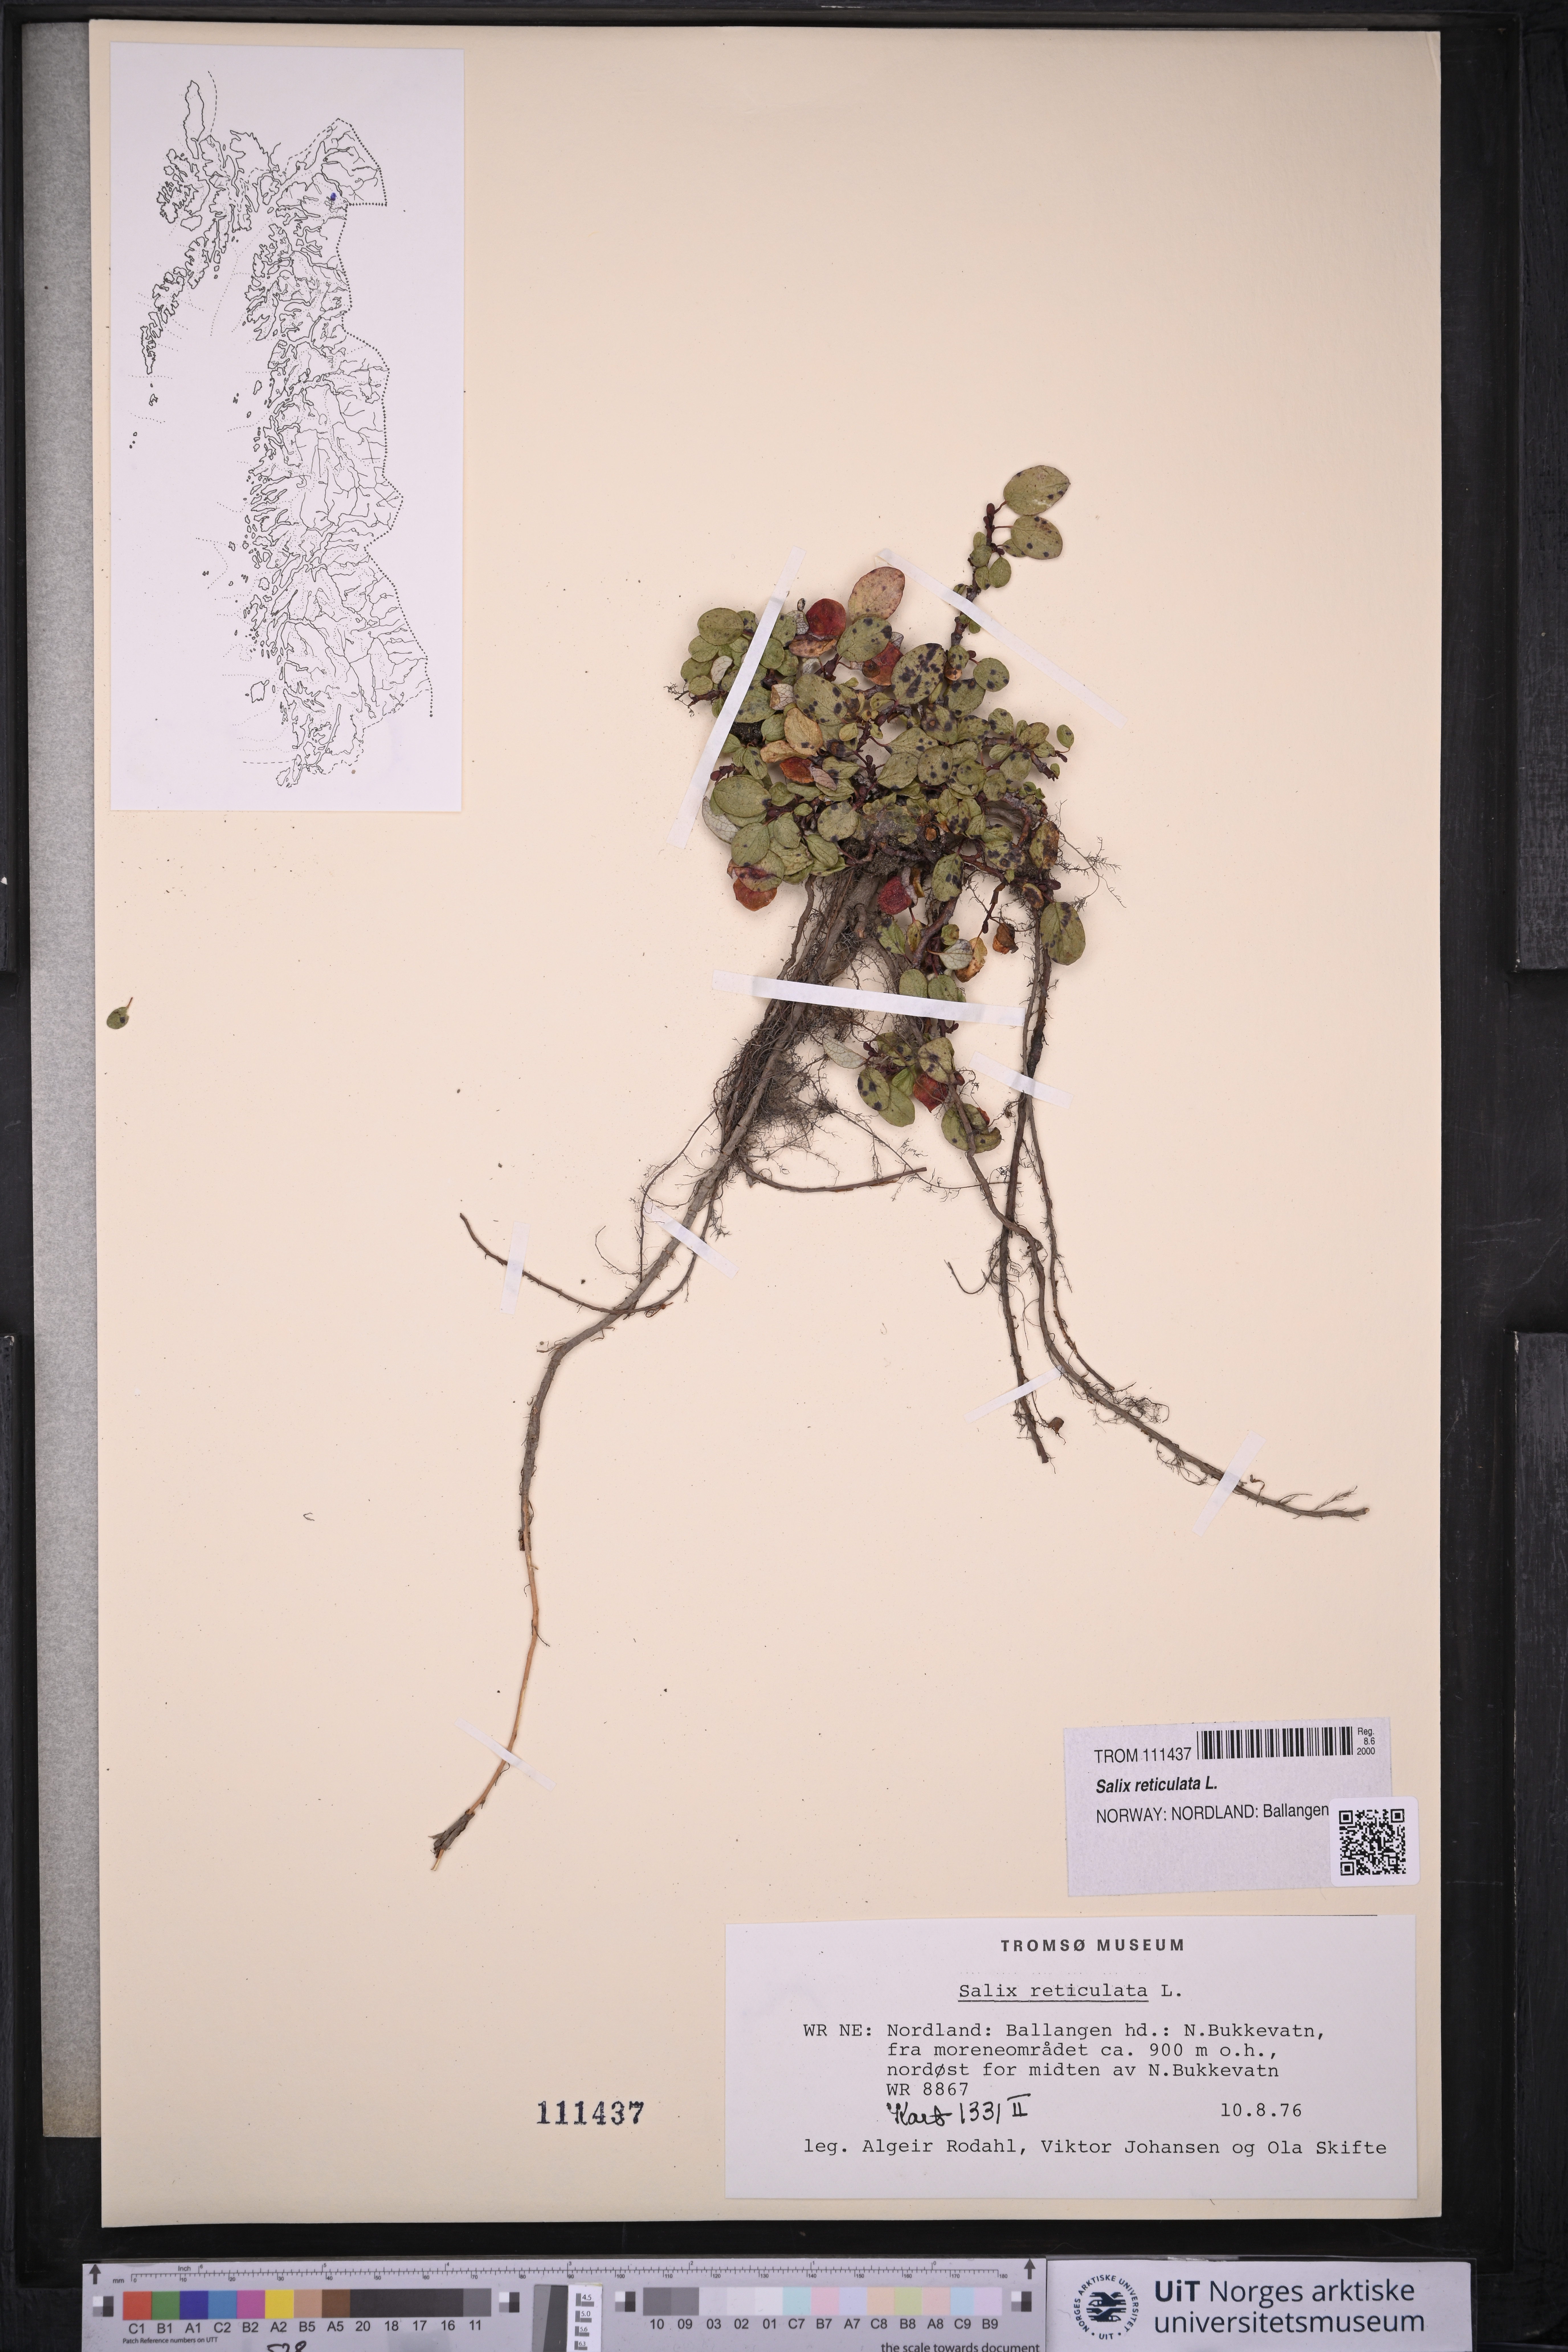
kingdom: Plantae
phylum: Tracheophyta
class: Magnoliopsida
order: Malpighiales
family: Salicaceae
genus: Salix
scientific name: Salix reticulata
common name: Net-leaved willow
